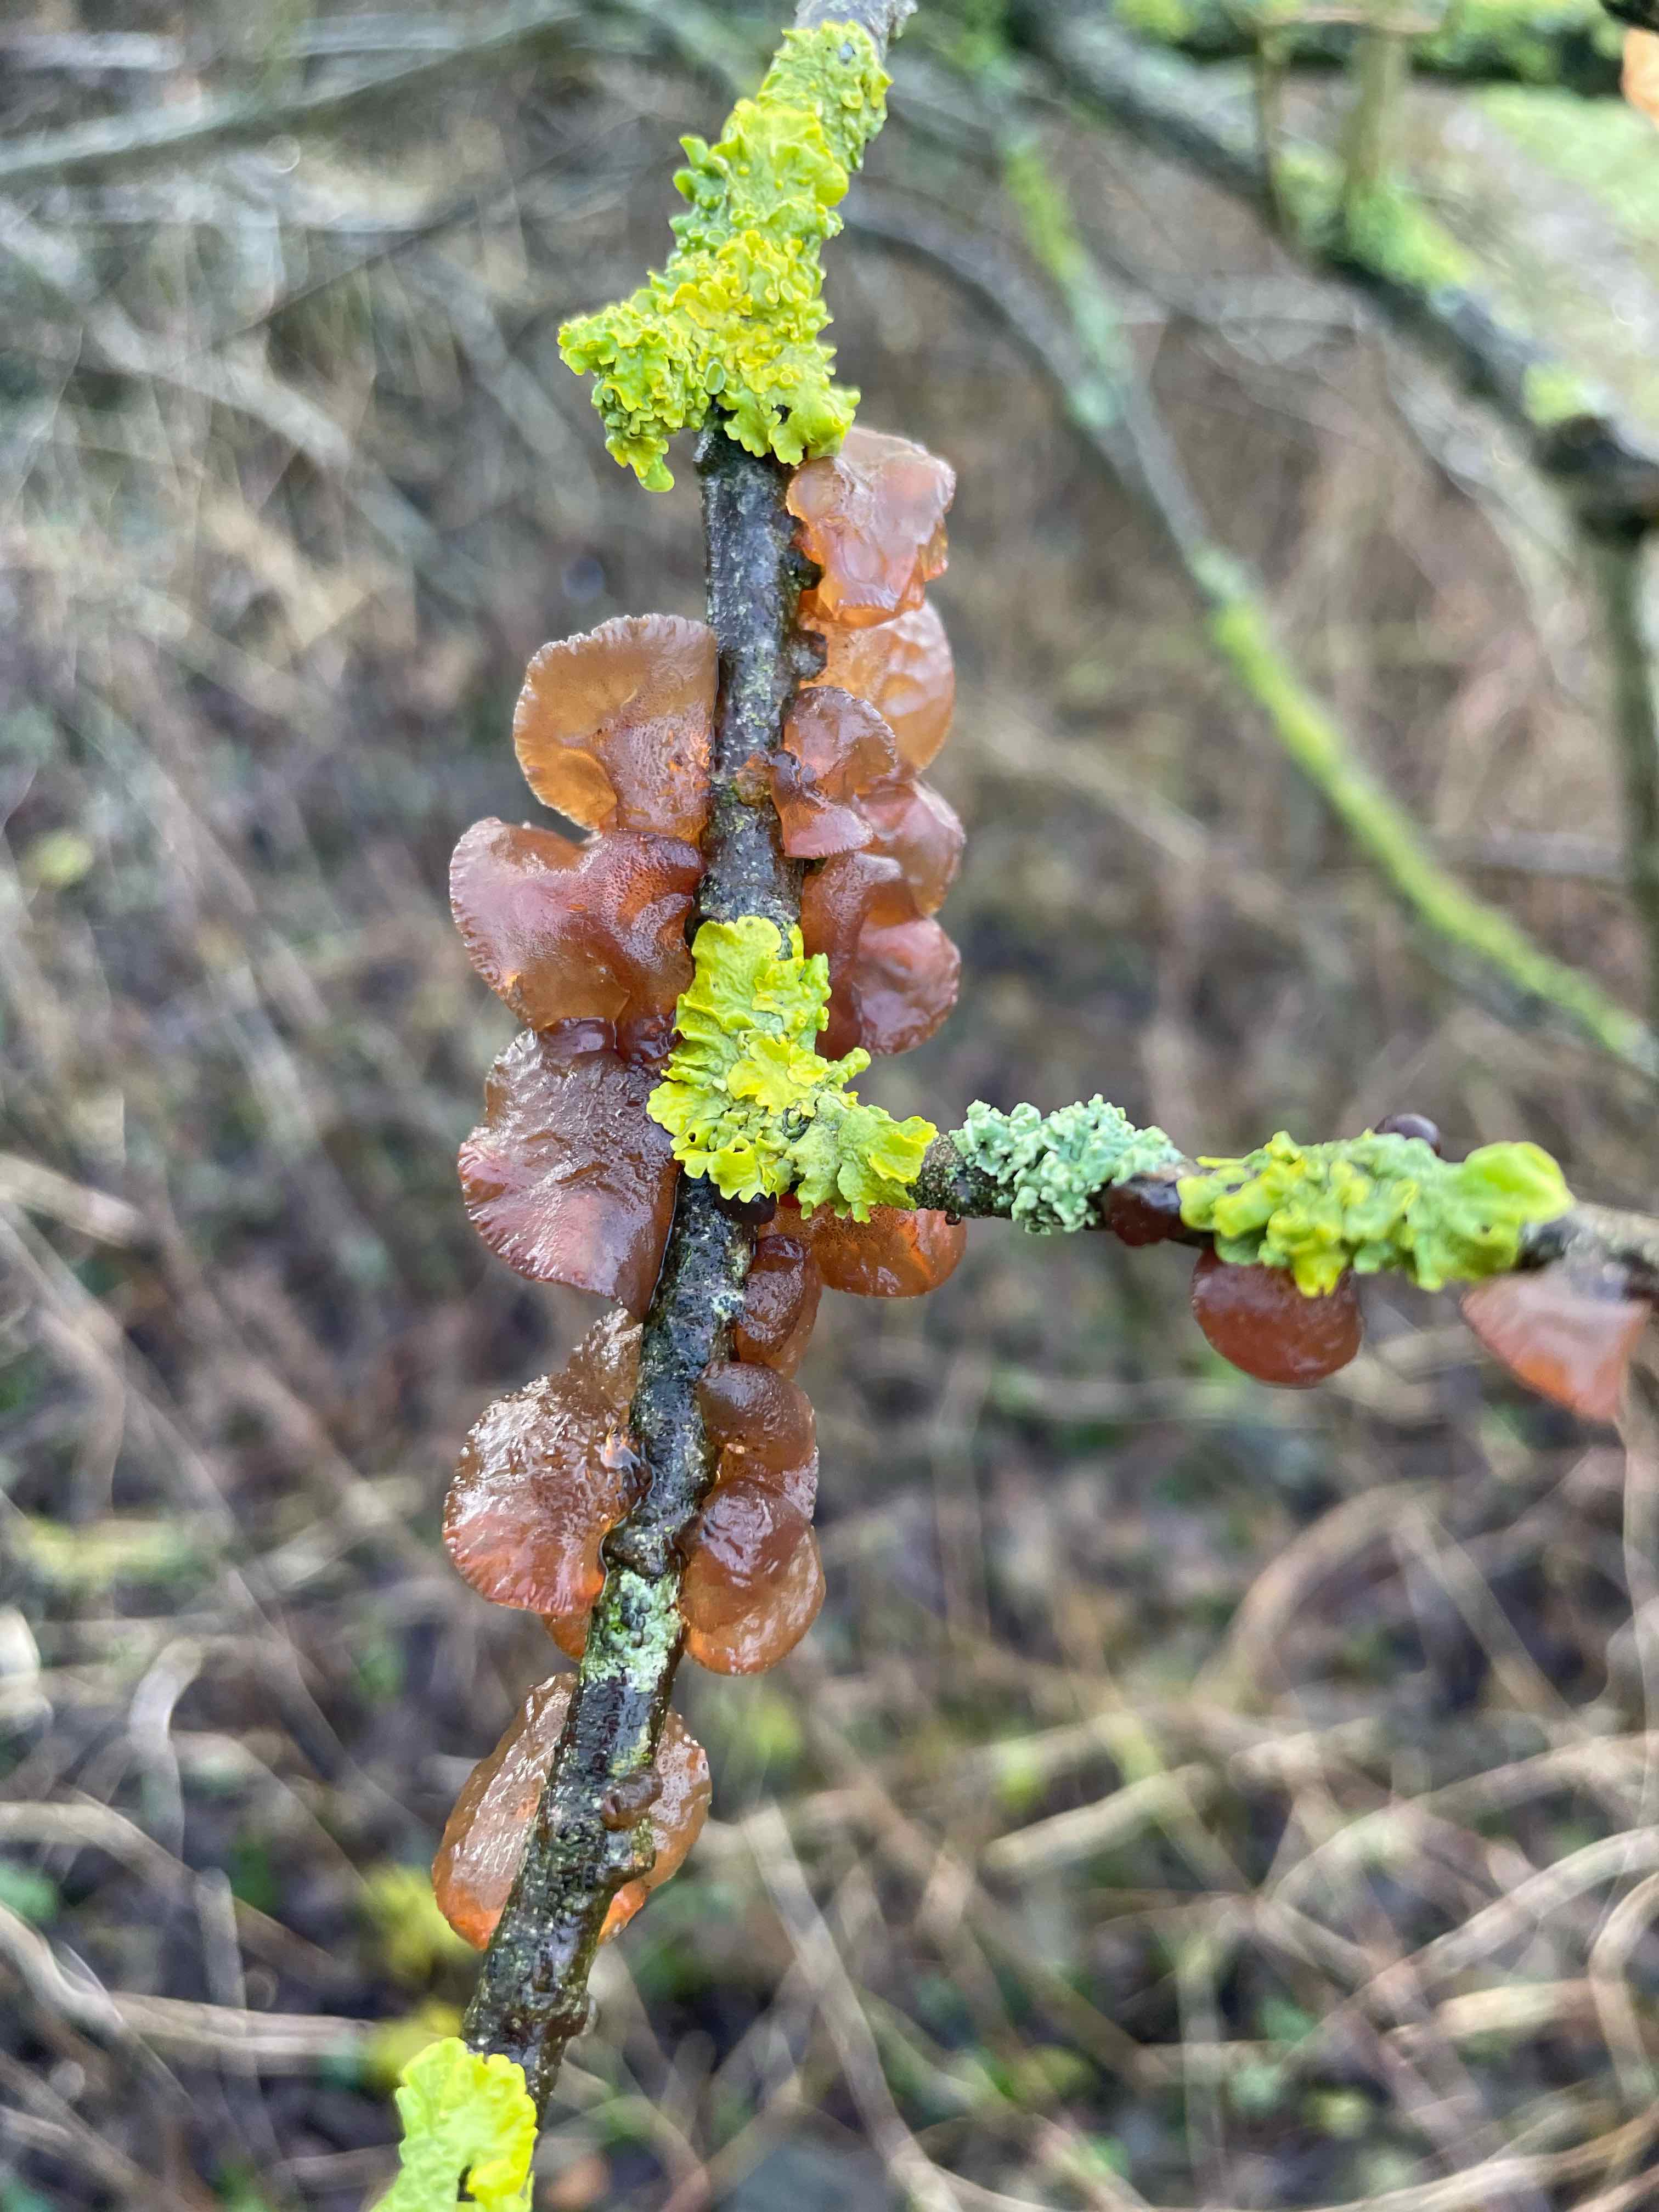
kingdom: Fungi
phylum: Basidiomycota
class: Agaricomycetes
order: Auriculariales
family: Auriculariaceae
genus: Exidia
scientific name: Exidia recisa
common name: pile-bævretop
